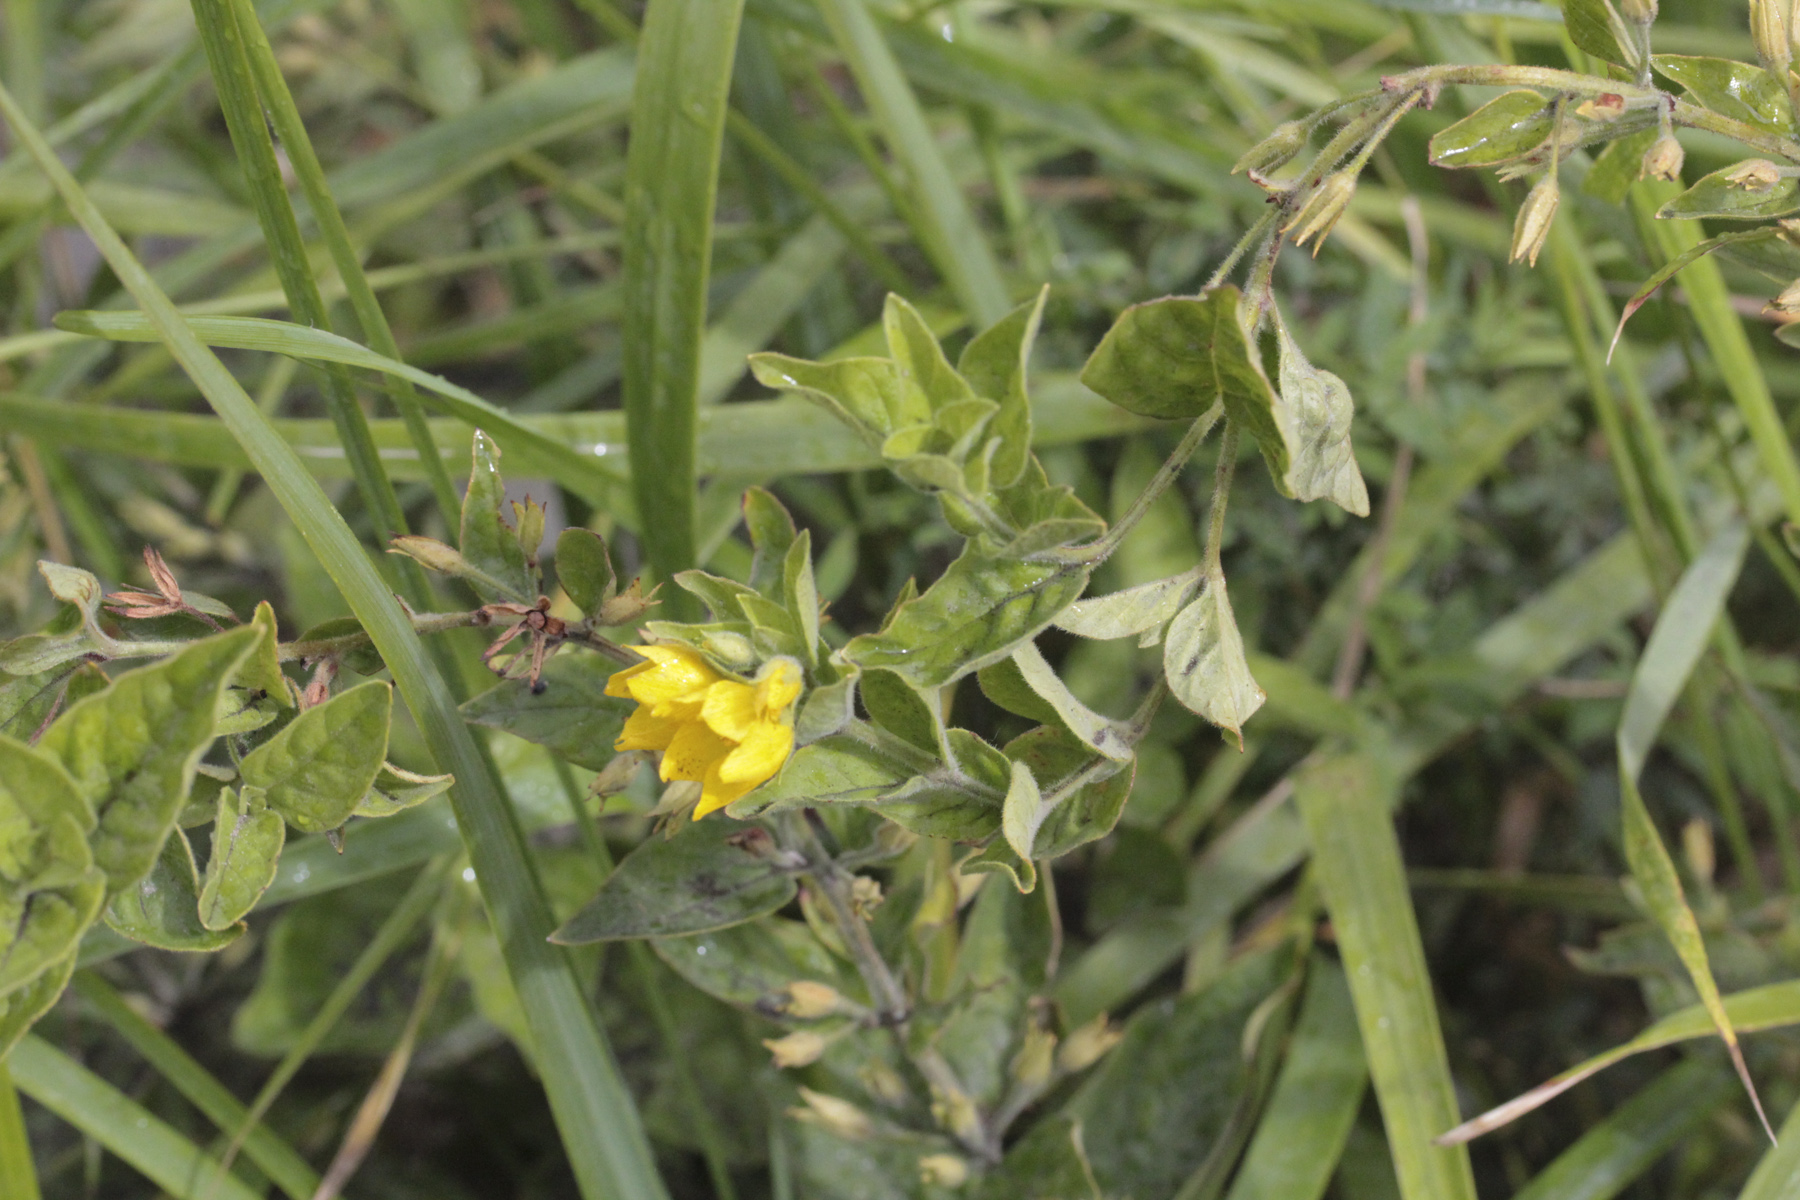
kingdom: Plantae
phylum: Tracheophyta
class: Magnoliopsida
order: Ericales
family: Primulaceae
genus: Lysimachia
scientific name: Lysimachia thyrsiflora
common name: Tufted loosestrife
